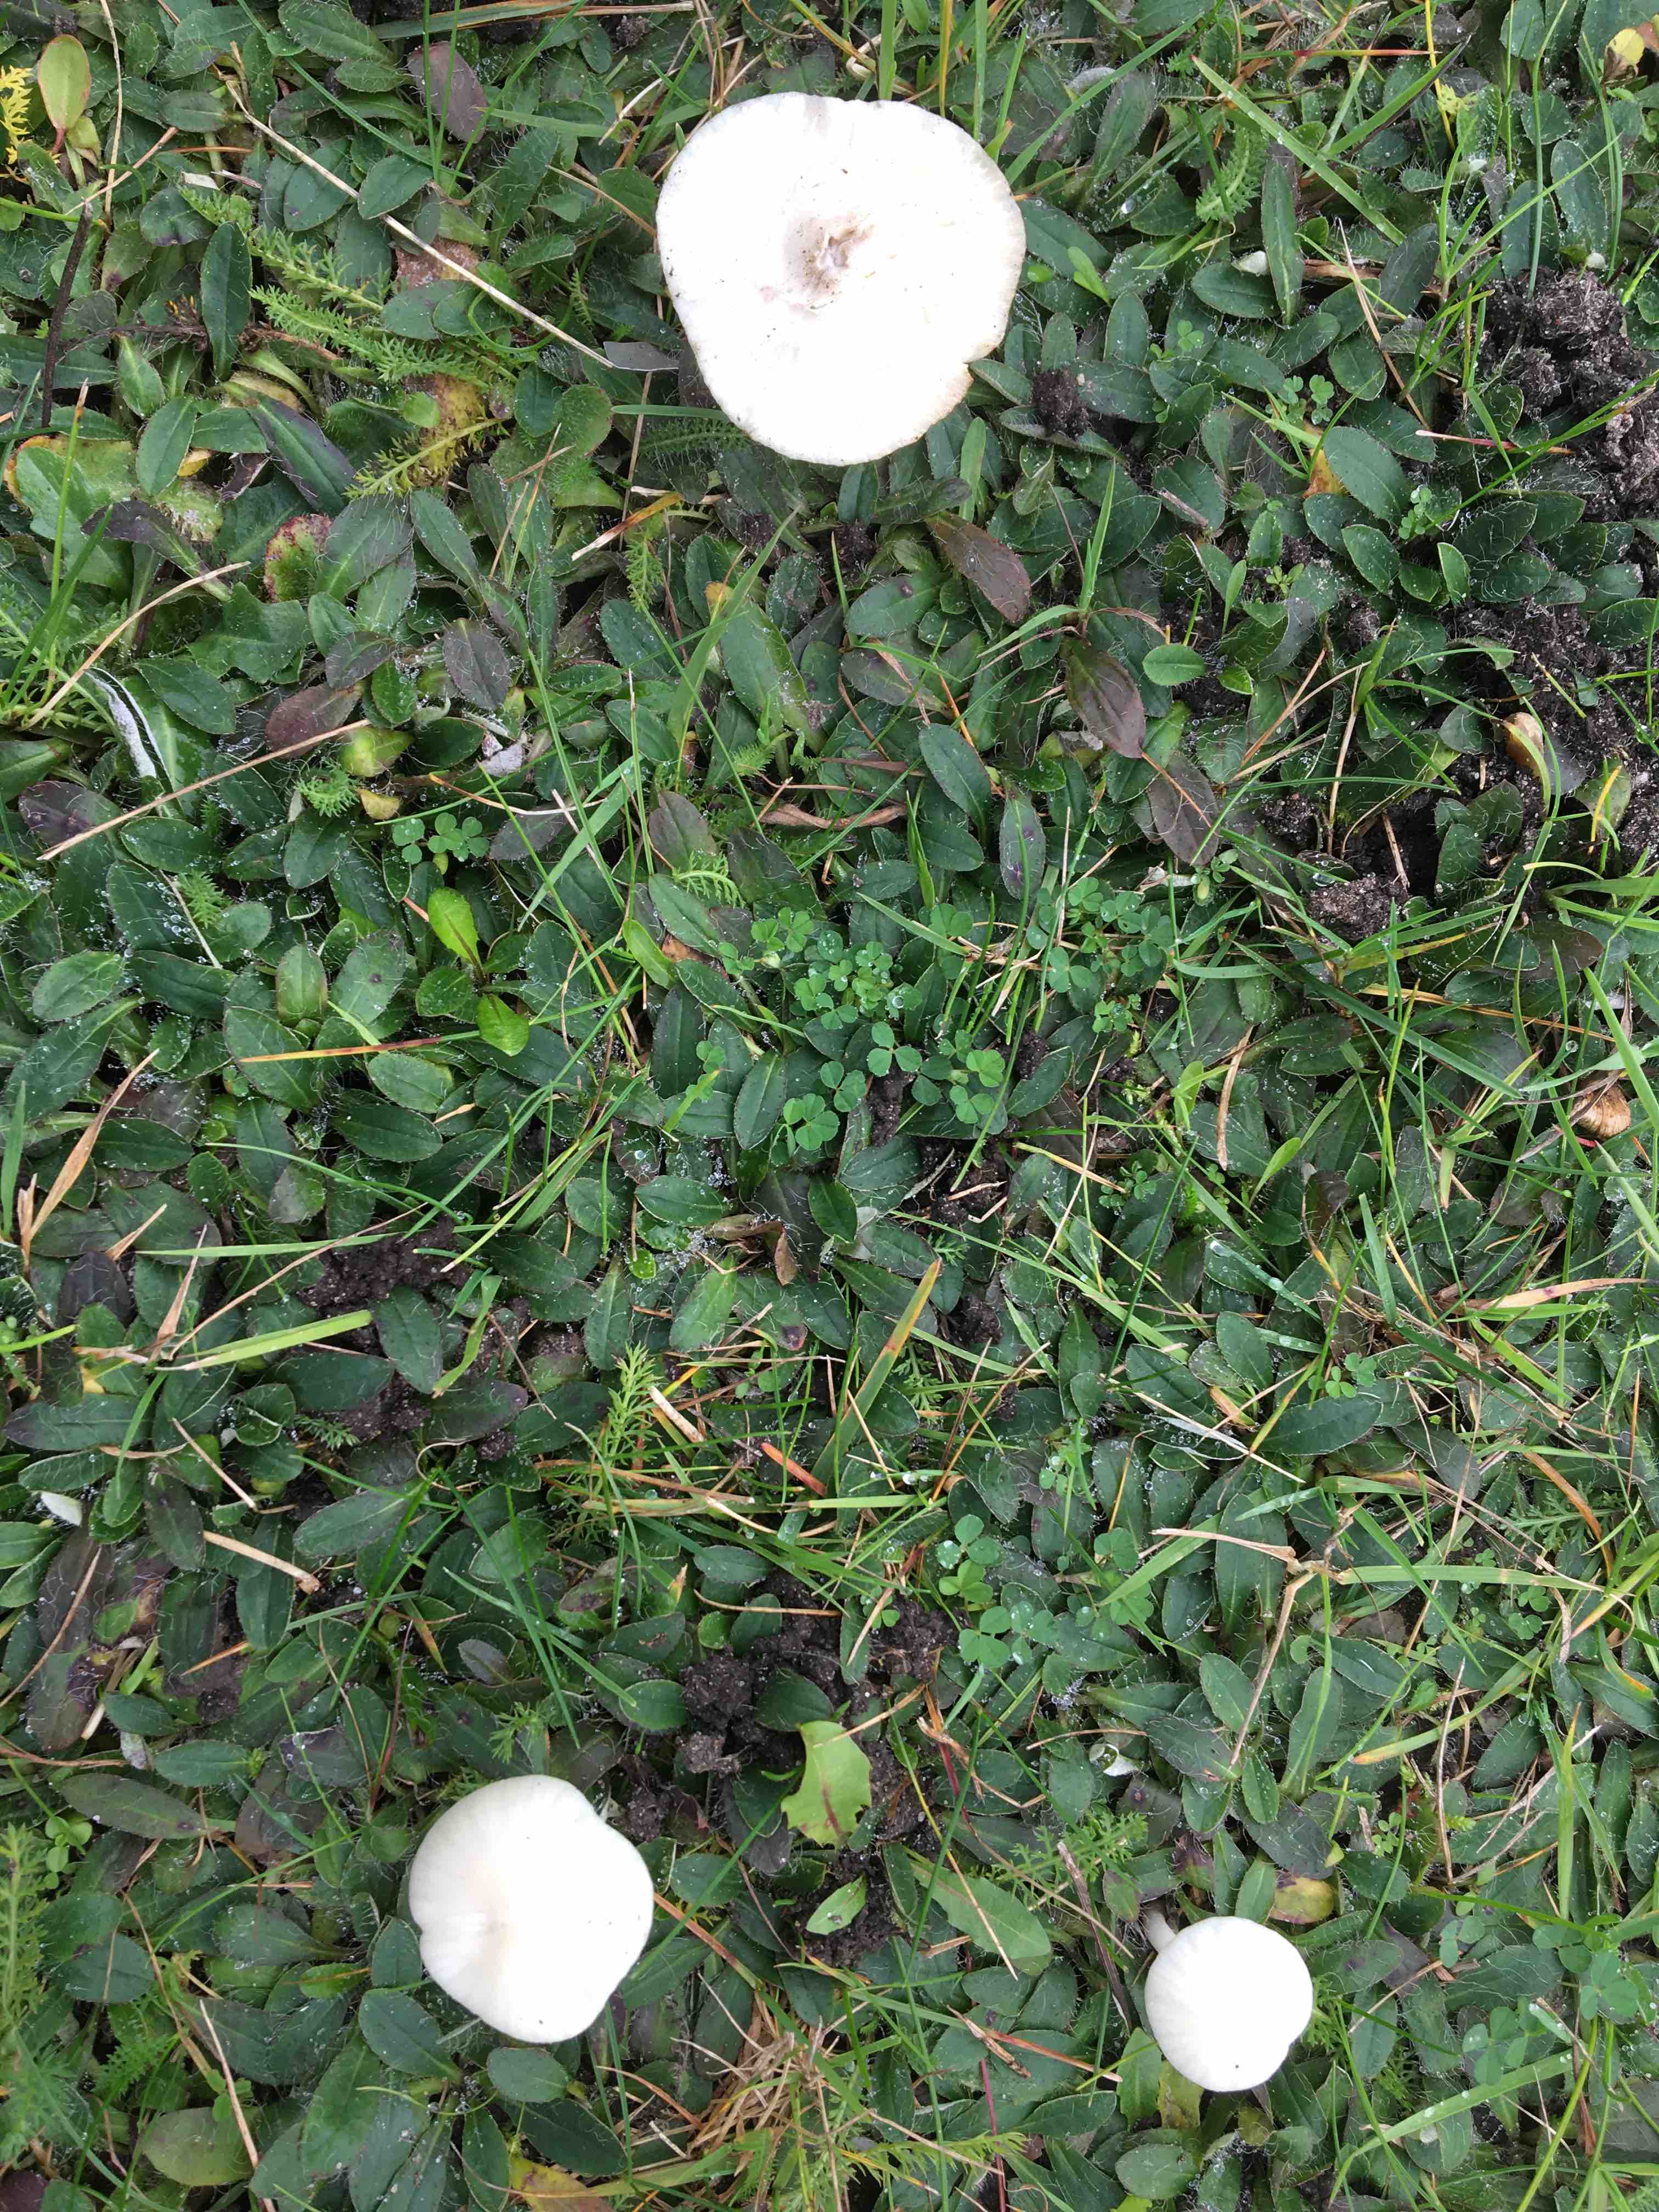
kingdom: Fungi
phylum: Basidiomycota
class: Agaricomycetes
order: Agaricales
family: Hygrophoraceae
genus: Cuphophyllus
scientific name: Cuphophyllus virgineus
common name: snehvid vokshat
